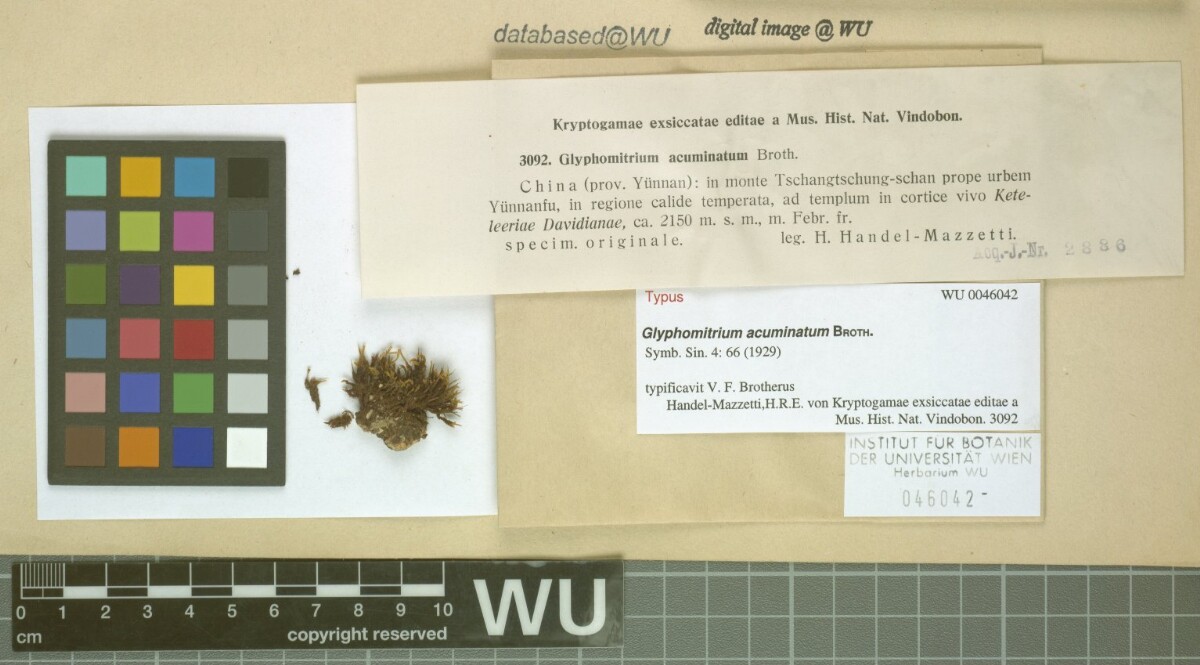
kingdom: Plantae
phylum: Bryophyta
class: Bryopsida
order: Dicranales
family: Rhabdoweisiaceae
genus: Glyphomitrium
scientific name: Glyphomitrium acuminatum
